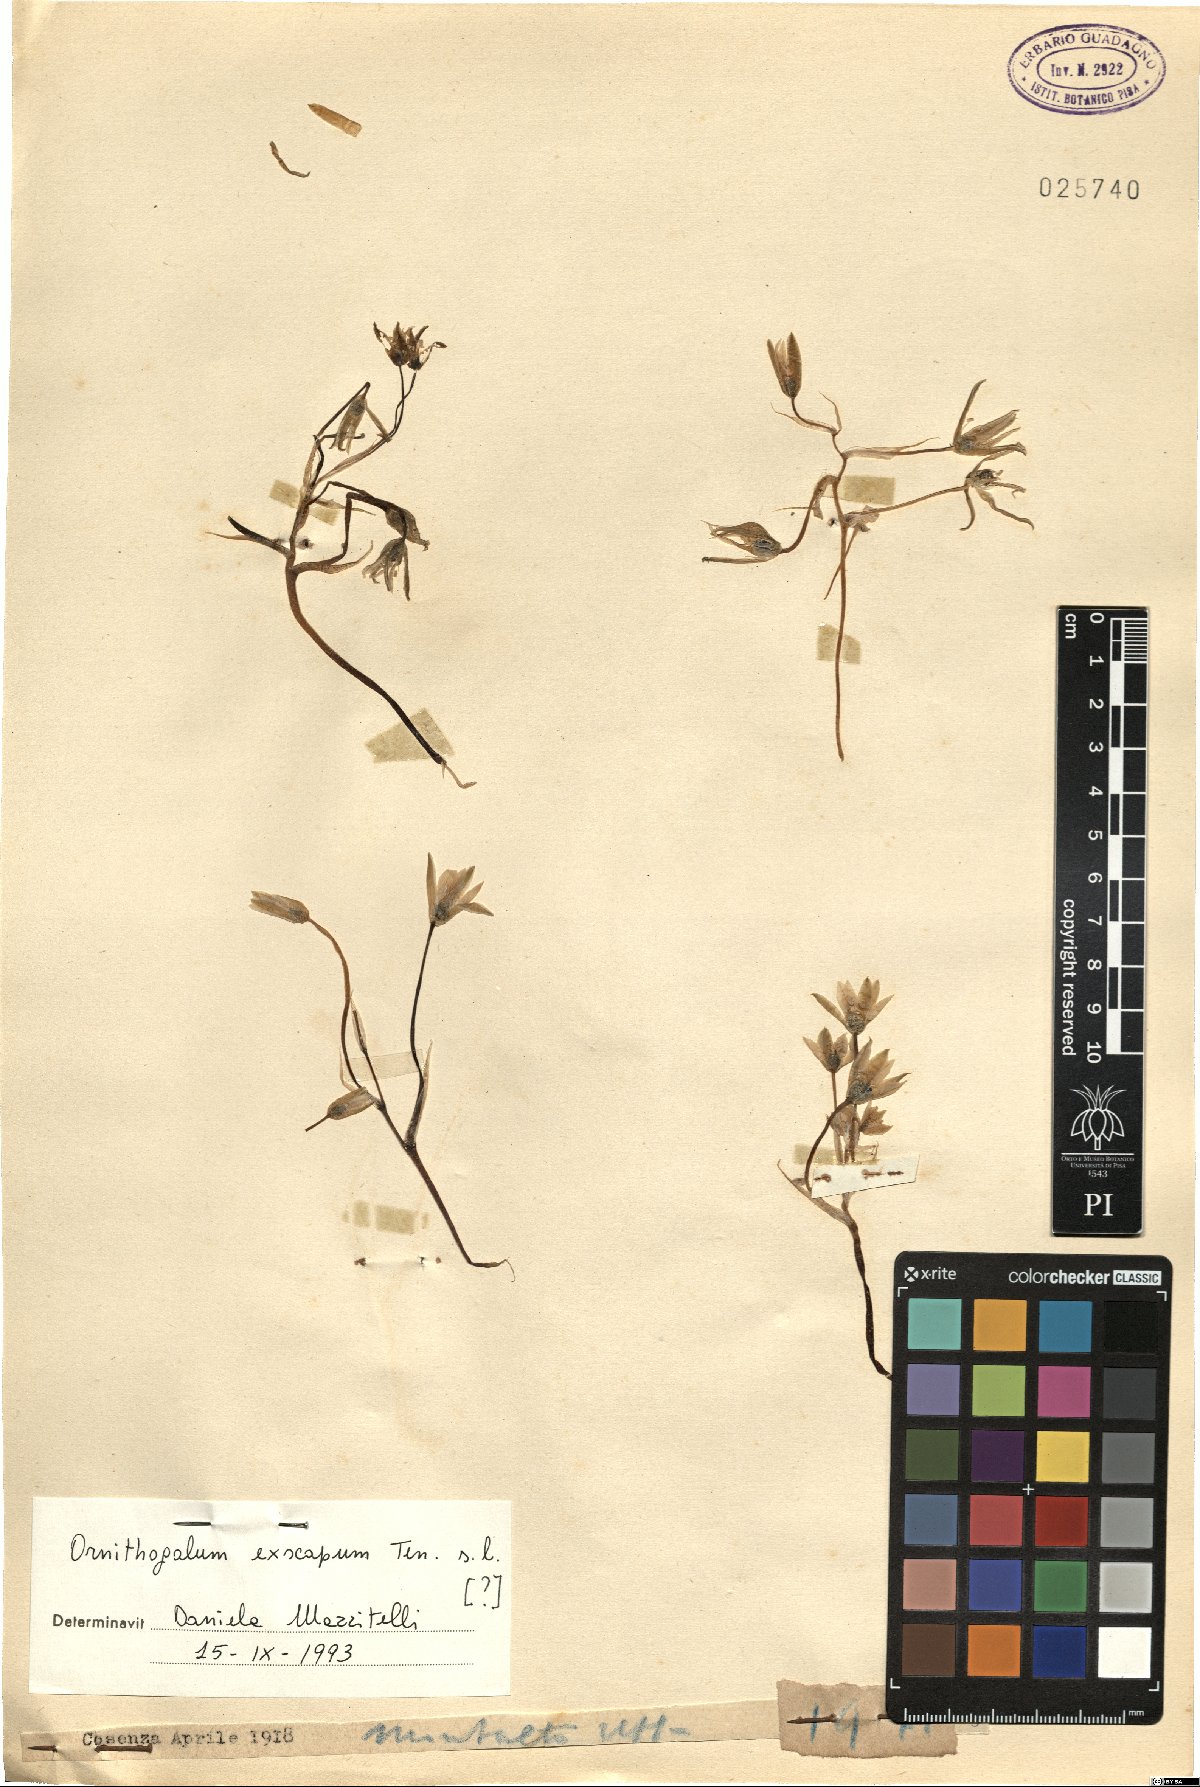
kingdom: Plantae
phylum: Tracheophyta
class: Liliopsida
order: Asparagales
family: Asparagaceae
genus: Ornithogalum
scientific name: Ornithogalum exscapum
